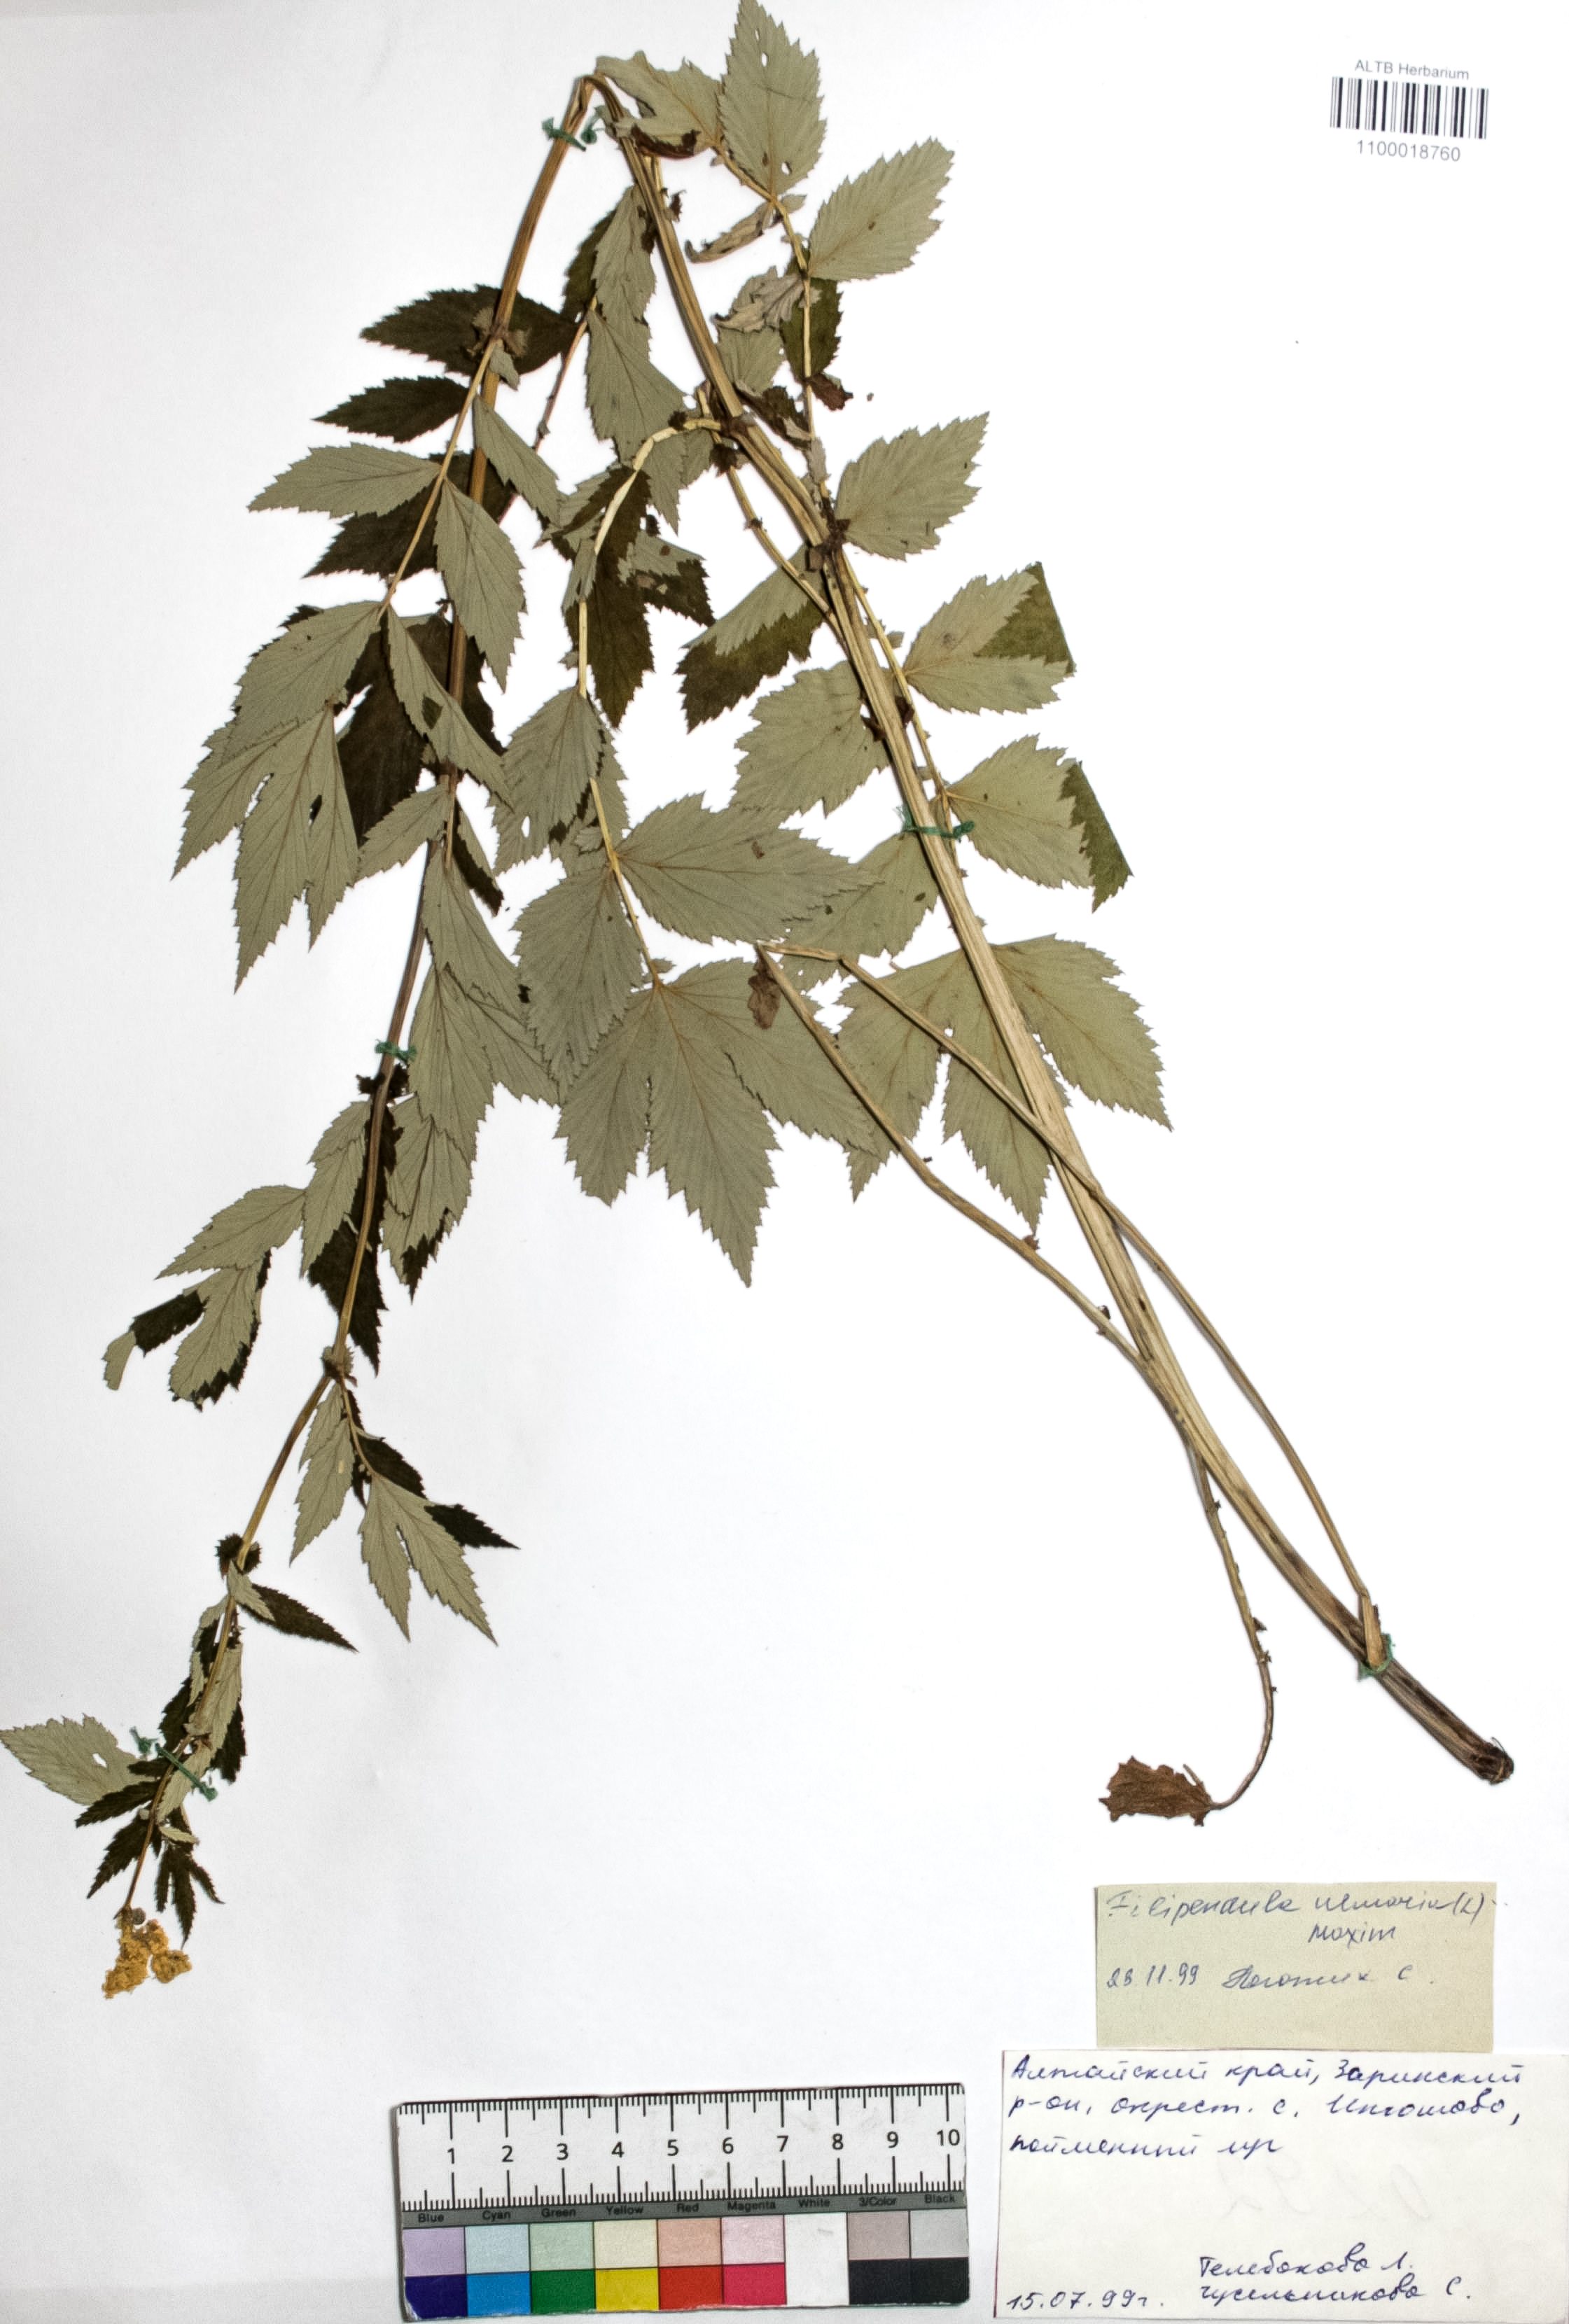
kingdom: Plantae
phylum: Tracheophyta
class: Magnoliopsida
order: Rosales
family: Rosaceae
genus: Filipendula
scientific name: Filipendula ulmaria
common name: Meadowsweet
